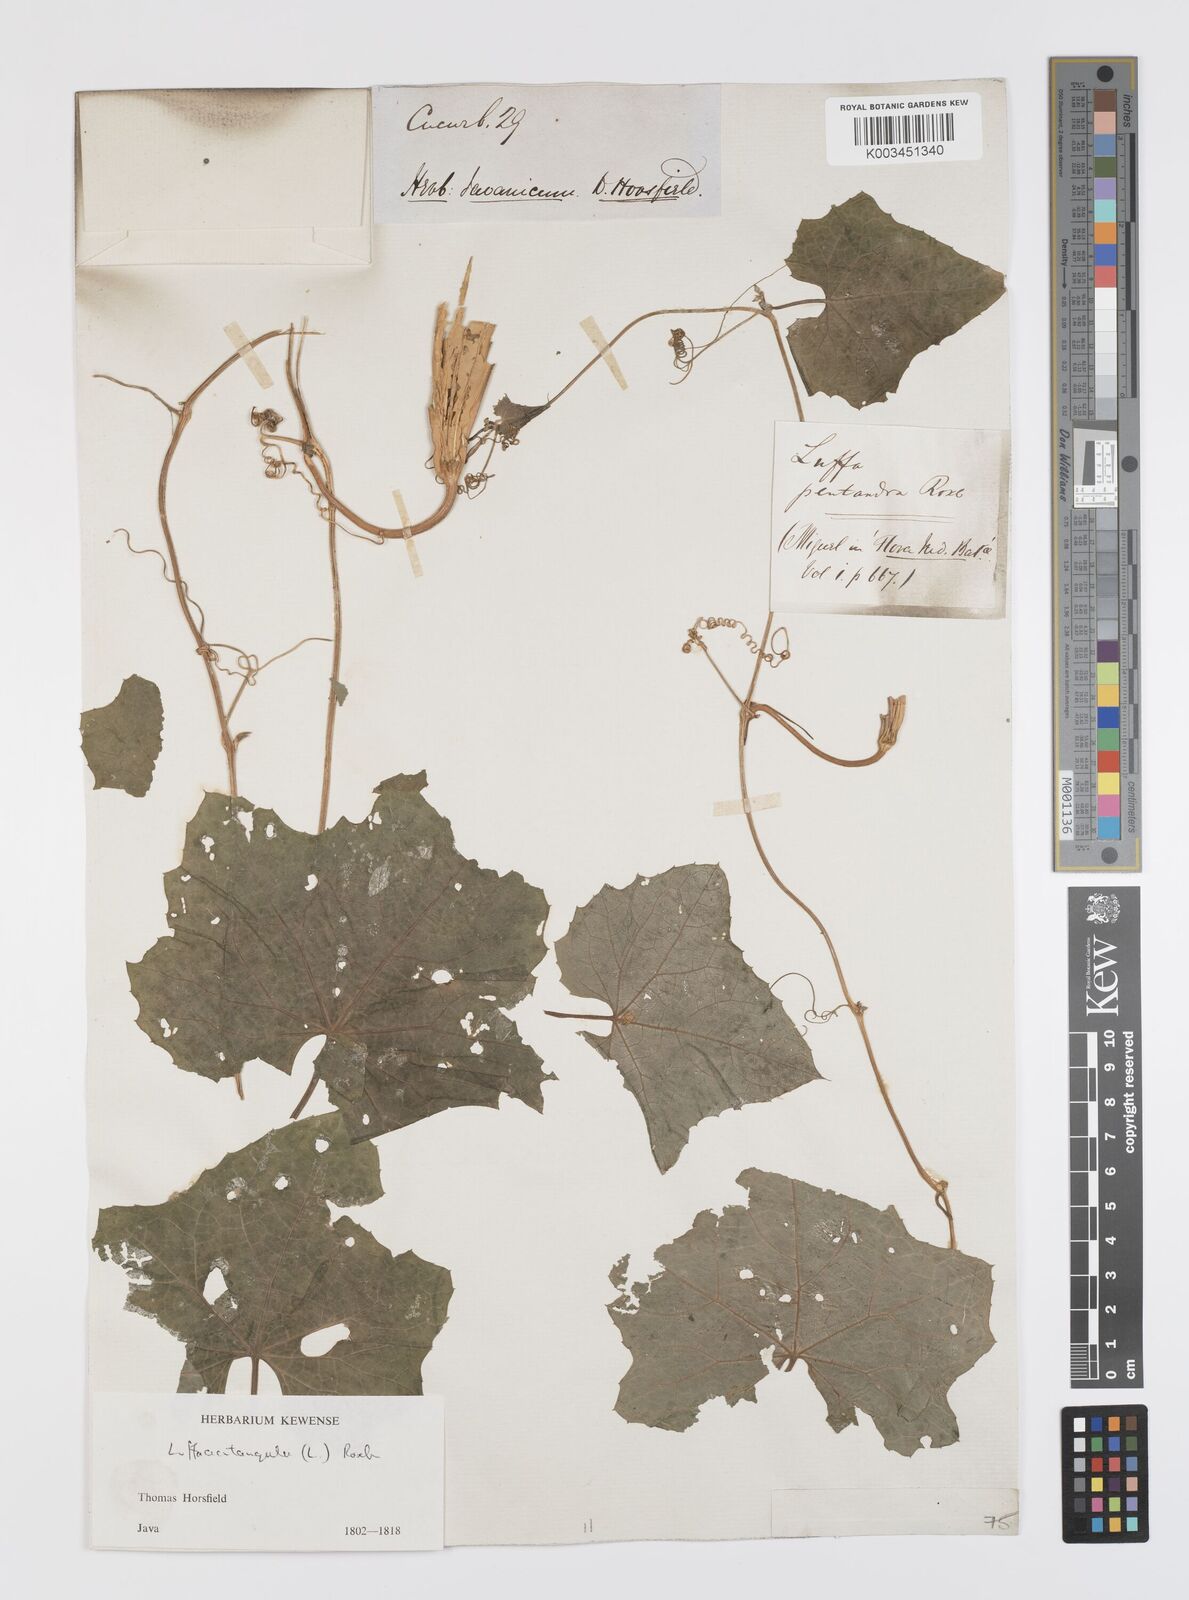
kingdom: Plantae
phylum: Tracheophyta
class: Magnoliopsida
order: Cucurbitales
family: Cucurbitaceae
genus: Luffa
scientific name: Luffa acutangula
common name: Sinkwa towelsponge
